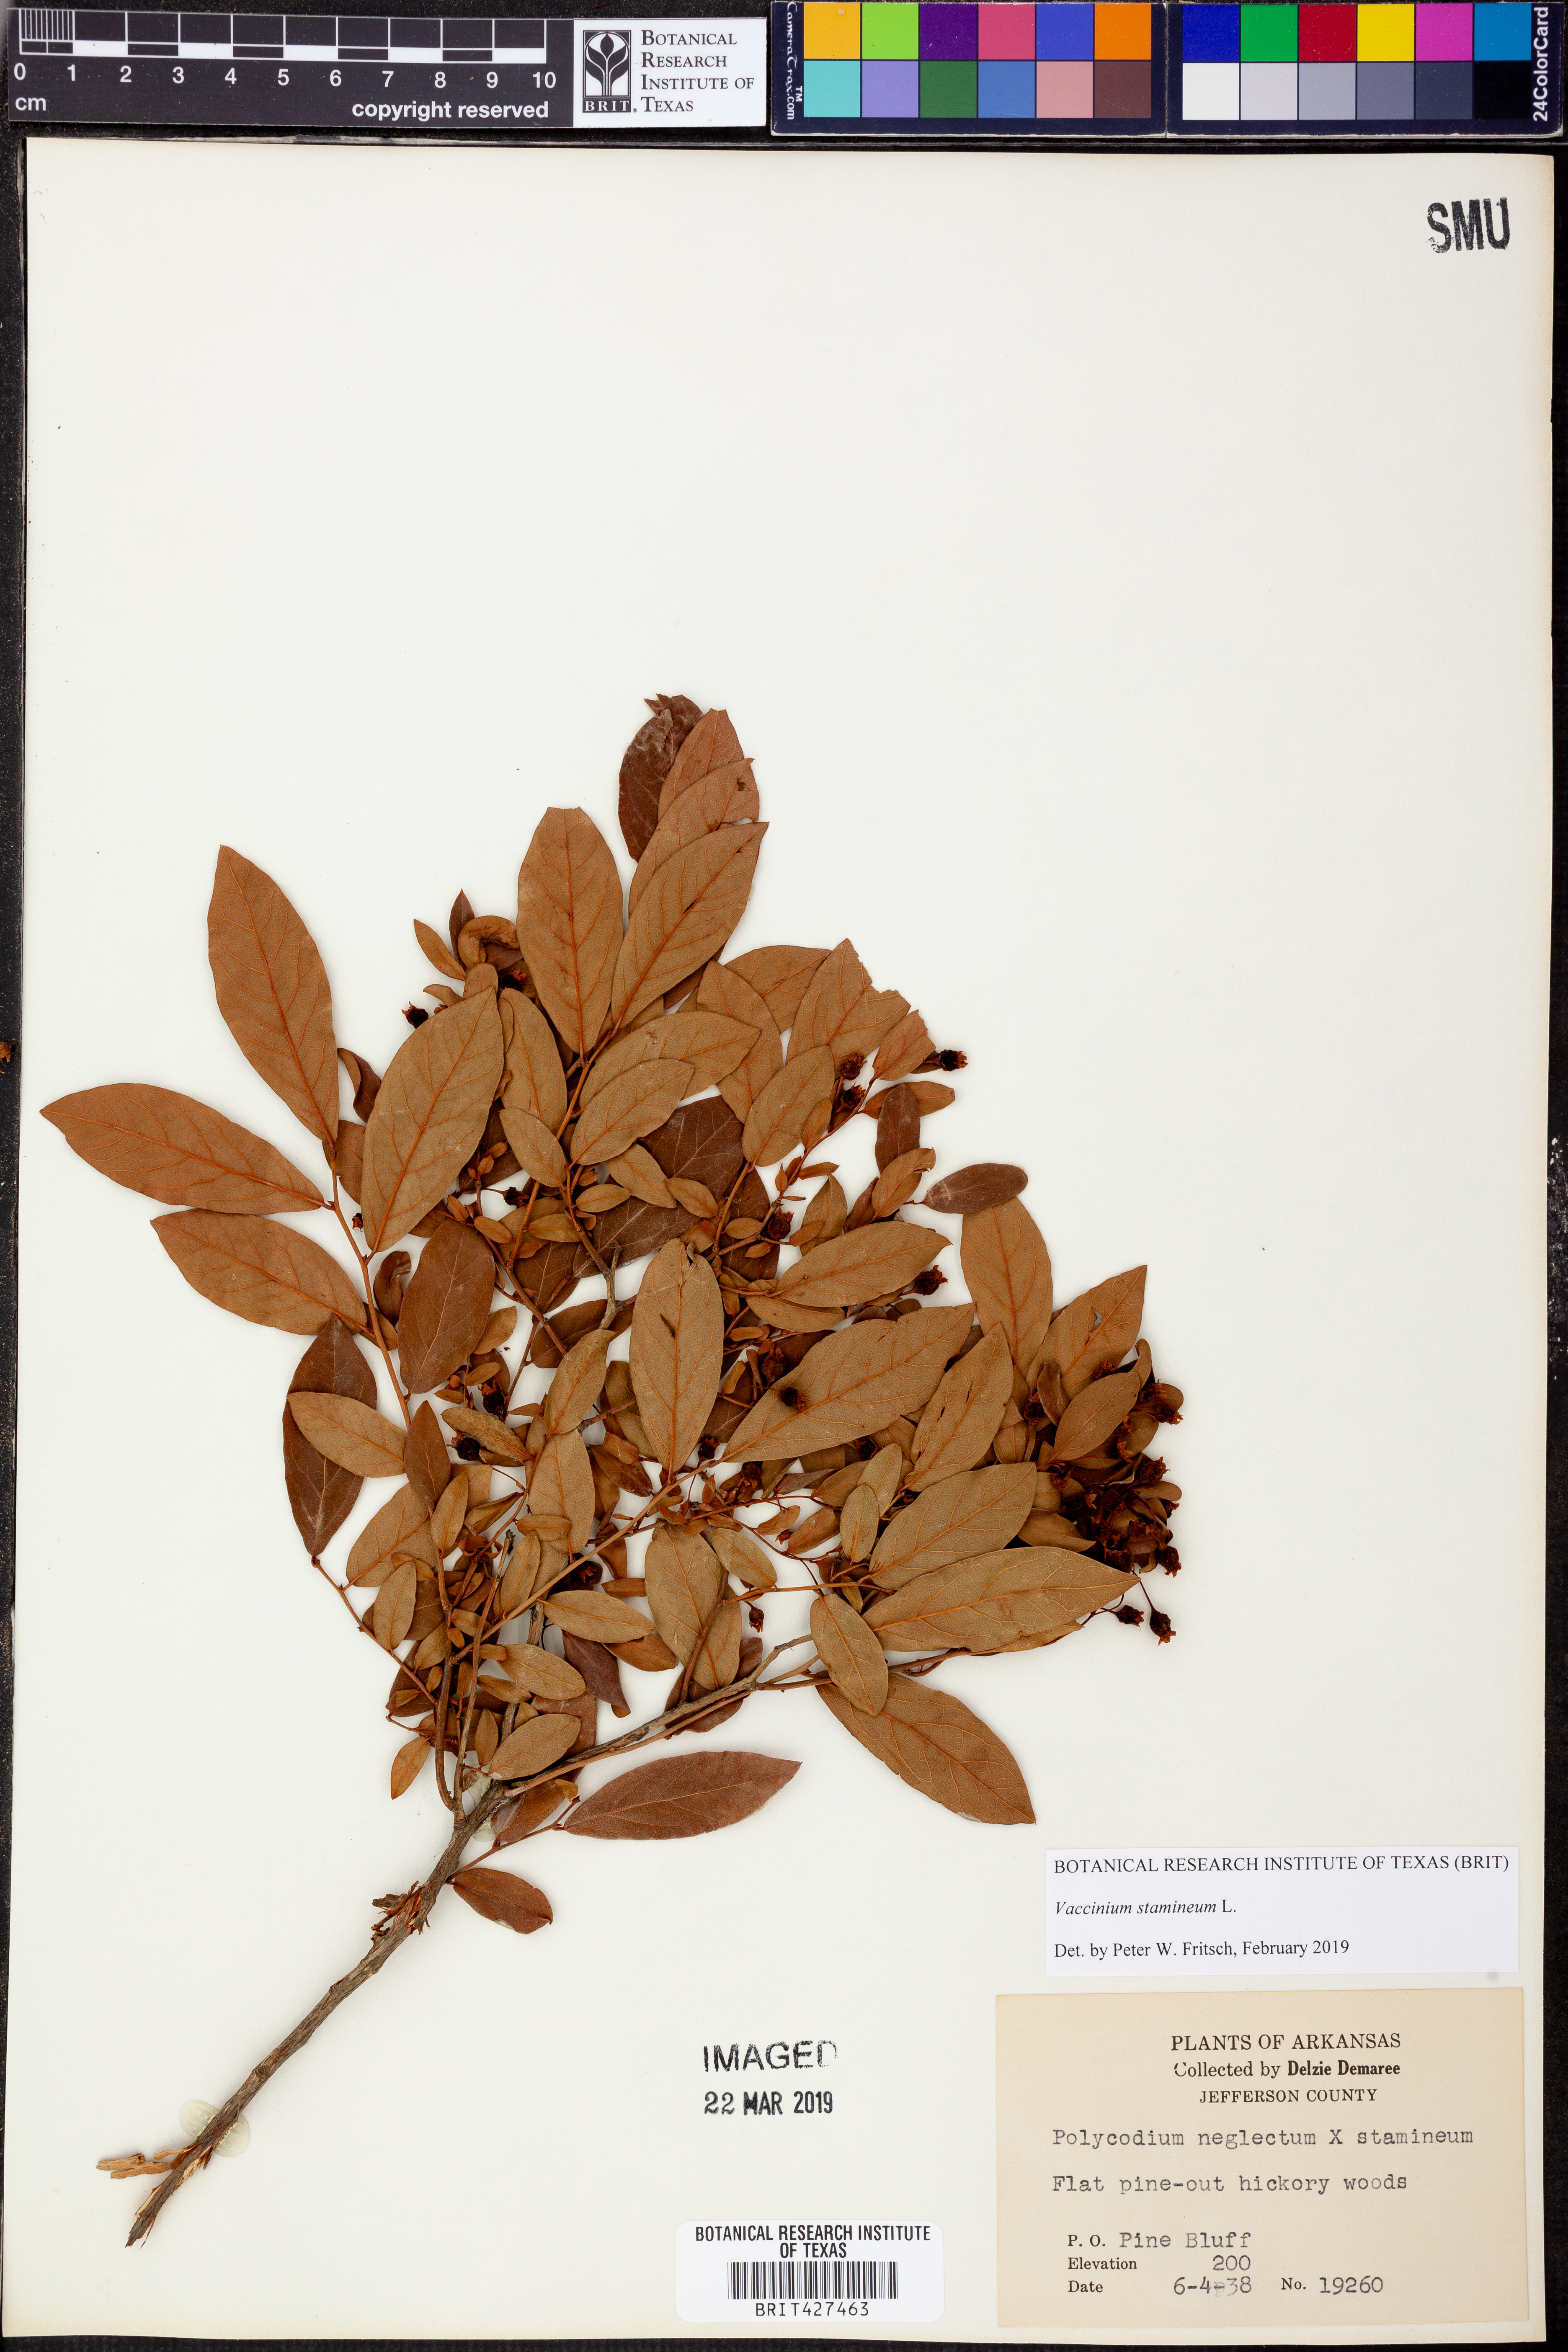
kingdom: Plantae
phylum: Tracheophyta
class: Magnoliopsida
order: Ericales
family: Ericaceae
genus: Vaccinium
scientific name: Vaccinium stamineum
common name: Deerberry
